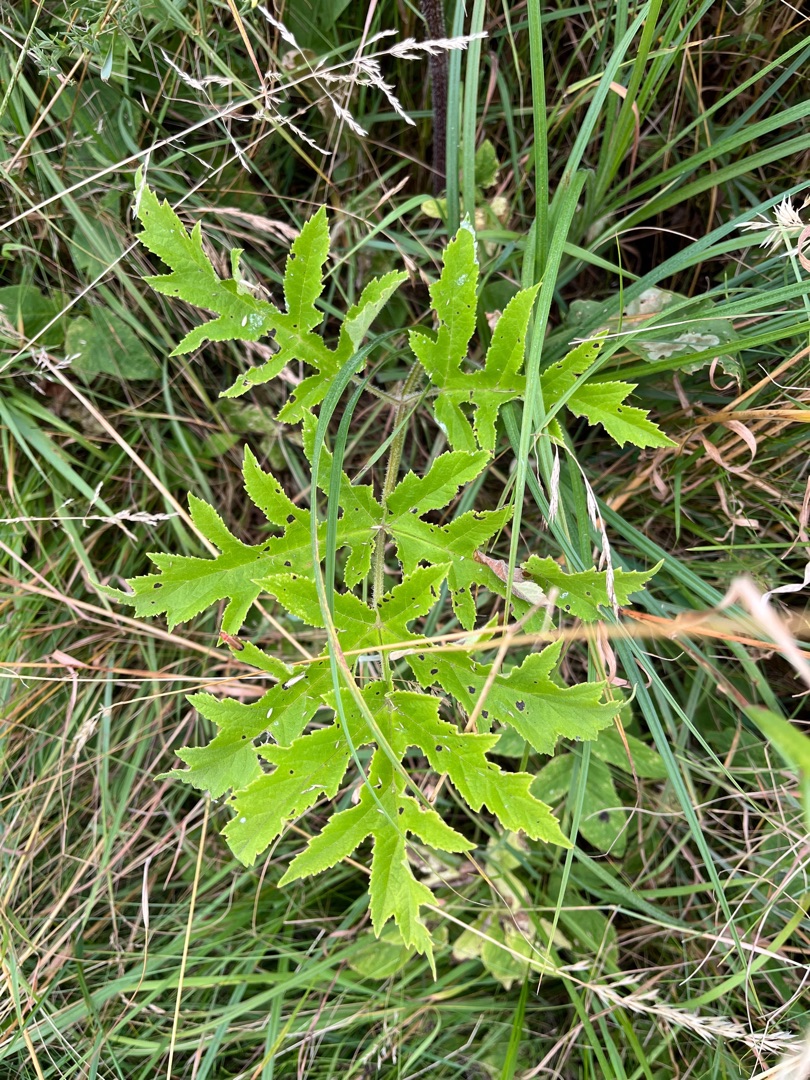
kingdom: Plantae
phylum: Tracheophyta
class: Magnoliopsida
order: Apiales
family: Apiaceae
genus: Heracleum
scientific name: Heracleum mantegazzianum
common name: Kæmpe-bjørneklo
